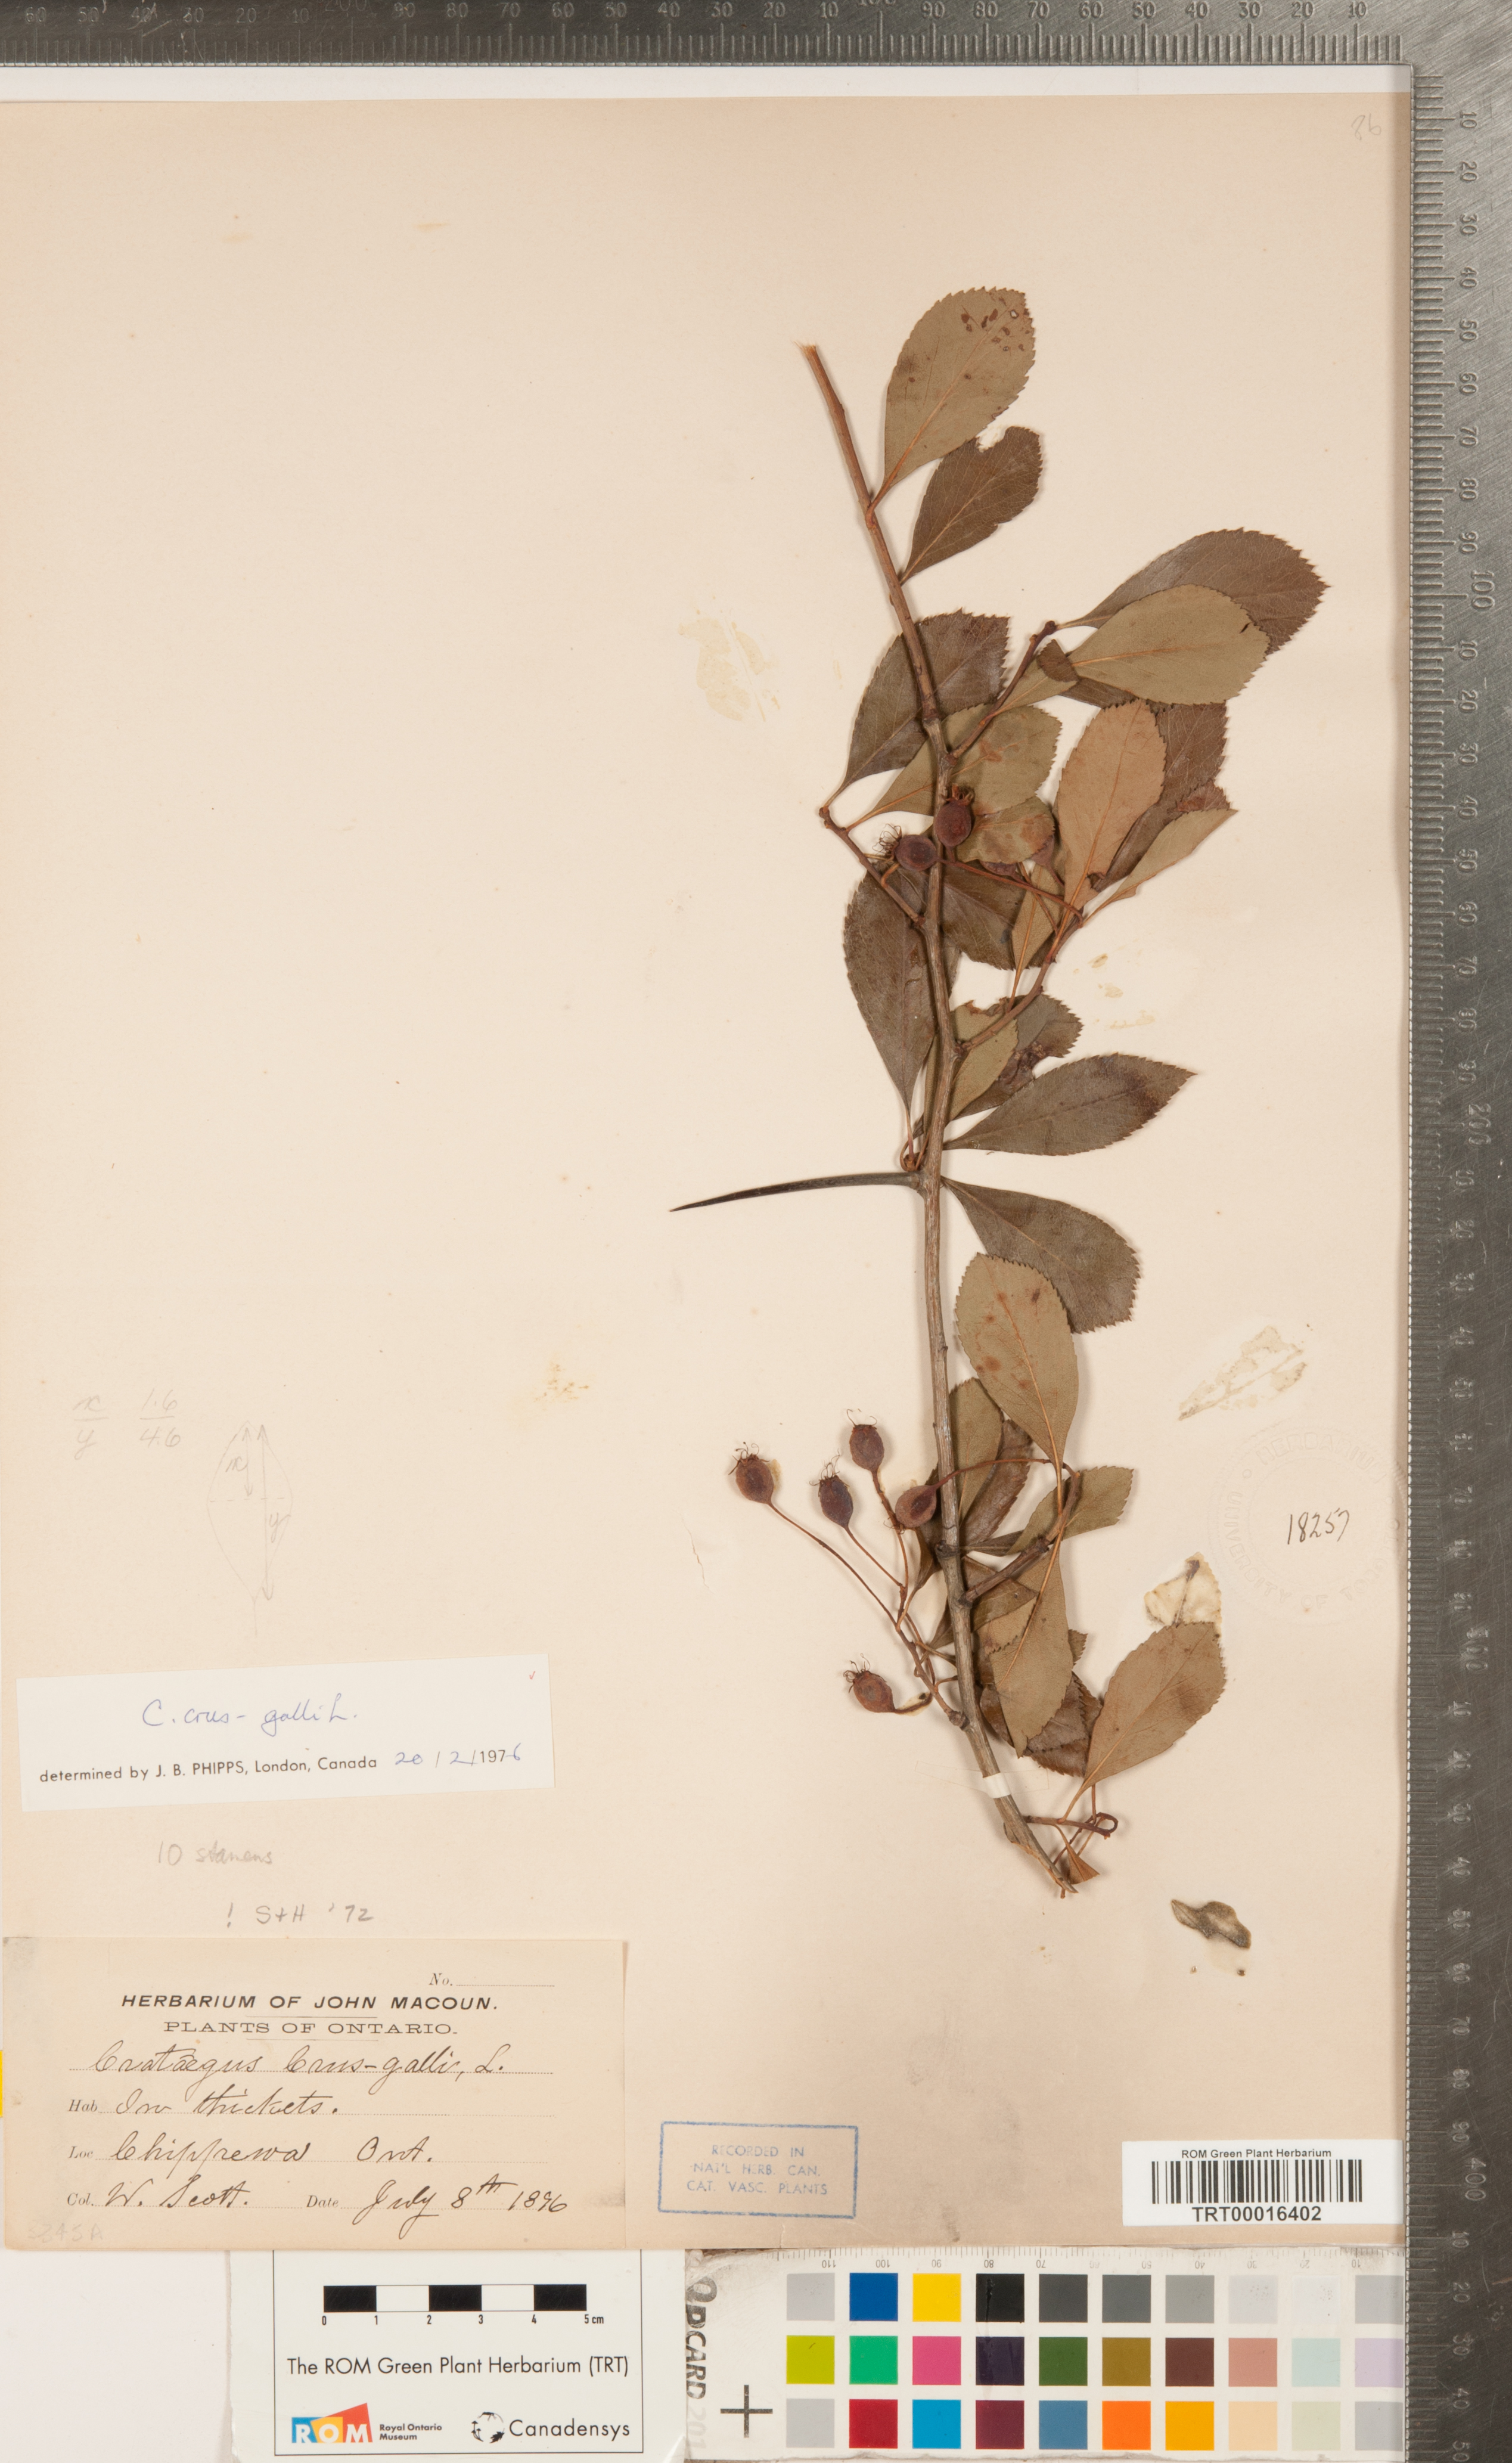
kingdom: Plantae
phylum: Tracheophyta
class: Magnoliopsida
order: Rosales
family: Rosaceae
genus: Crataegus
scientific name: Crataegus crus-galli
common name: Cockspurthorn
